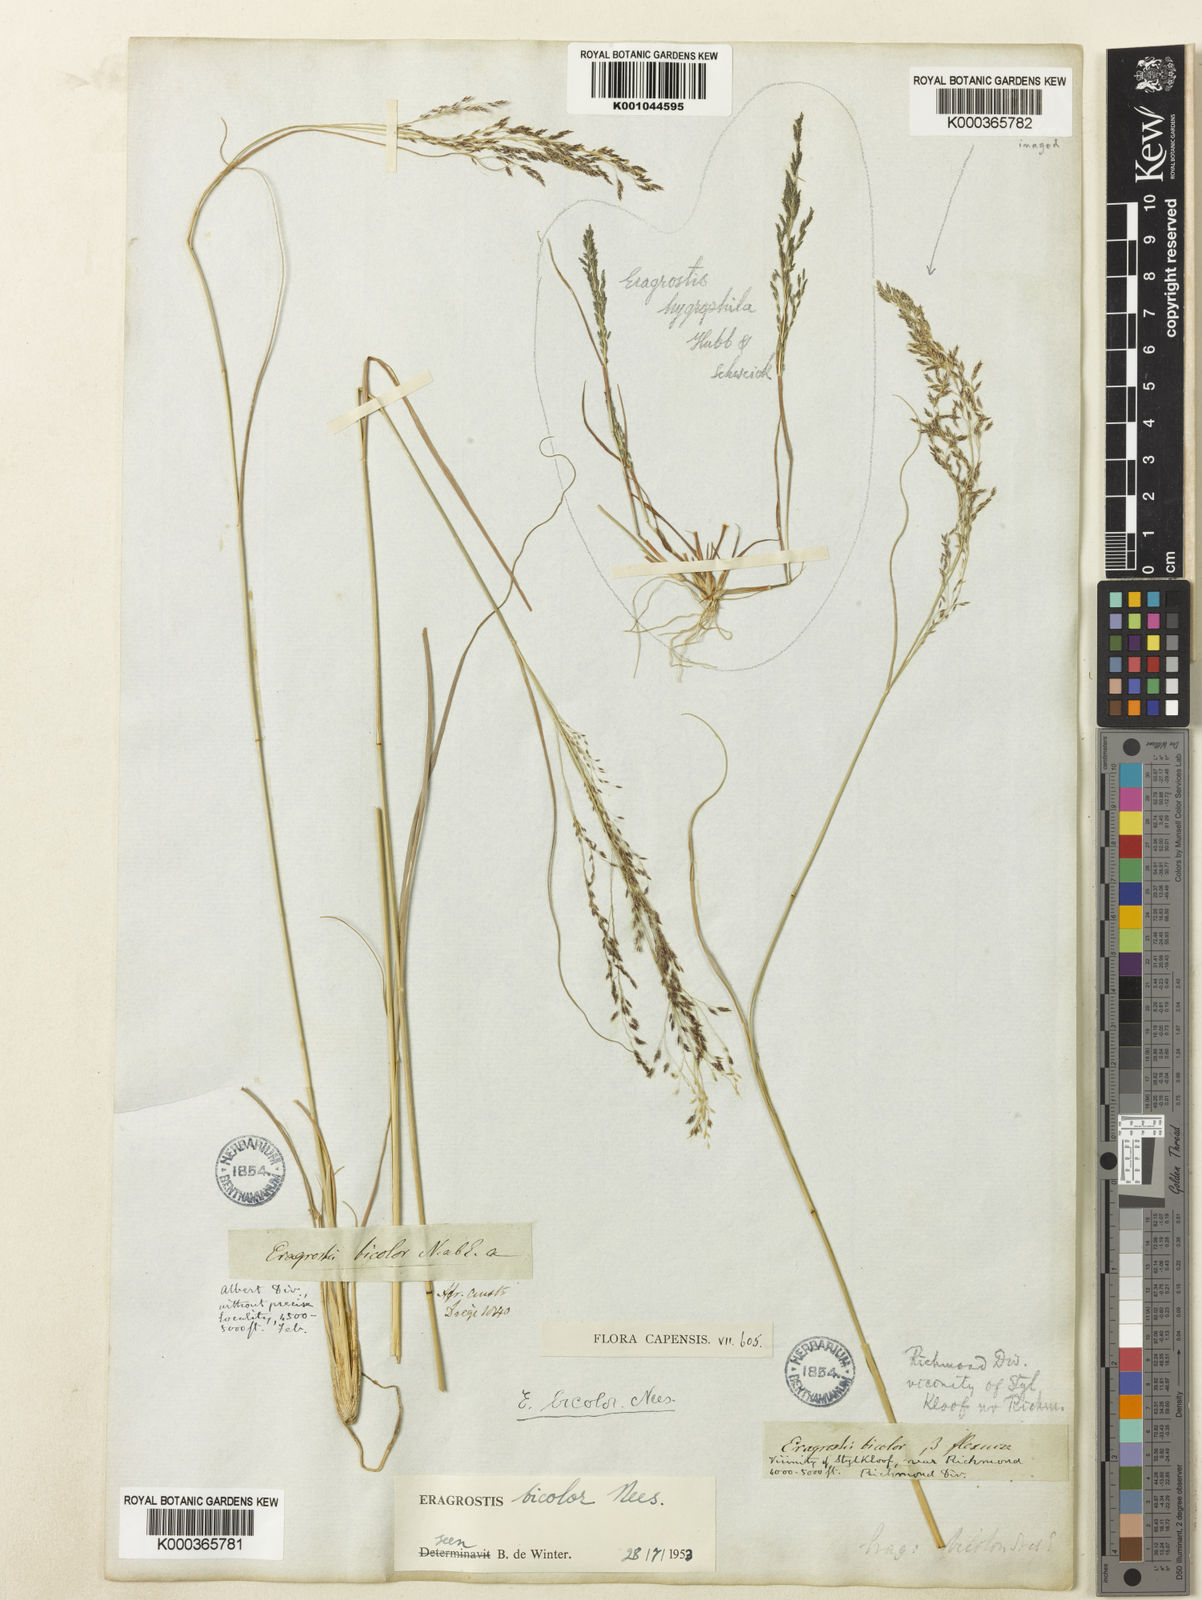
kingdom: Plantae
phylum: Tracheophyta
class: Liliopsida
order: Poales
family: Poaceae
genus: Eragrostis
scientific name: Eragrostis bicolor
